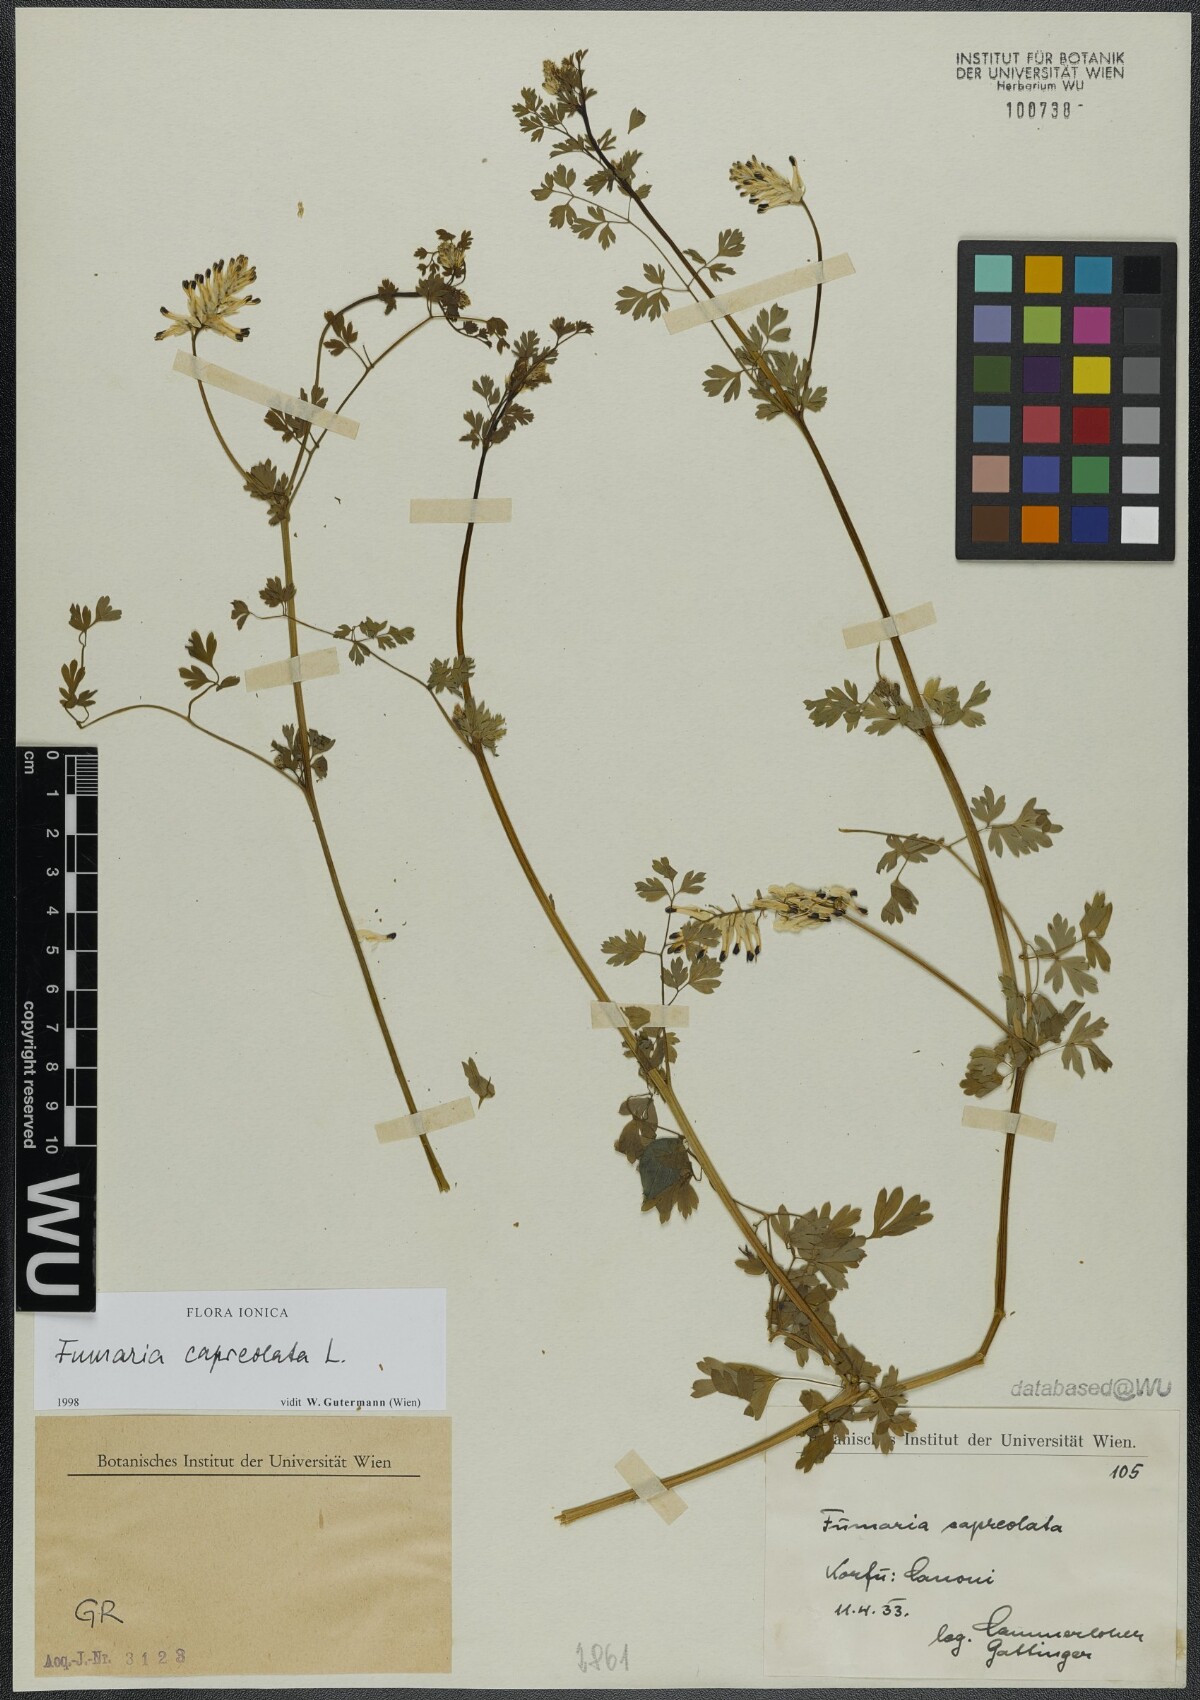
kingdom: Plantae
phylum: Tracheophyta
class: Magnoliopsida
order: Ranunculales
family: Papaveraceae
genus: Fumaria
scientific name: Fumaria capreolata
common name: White ramping-fumitory
